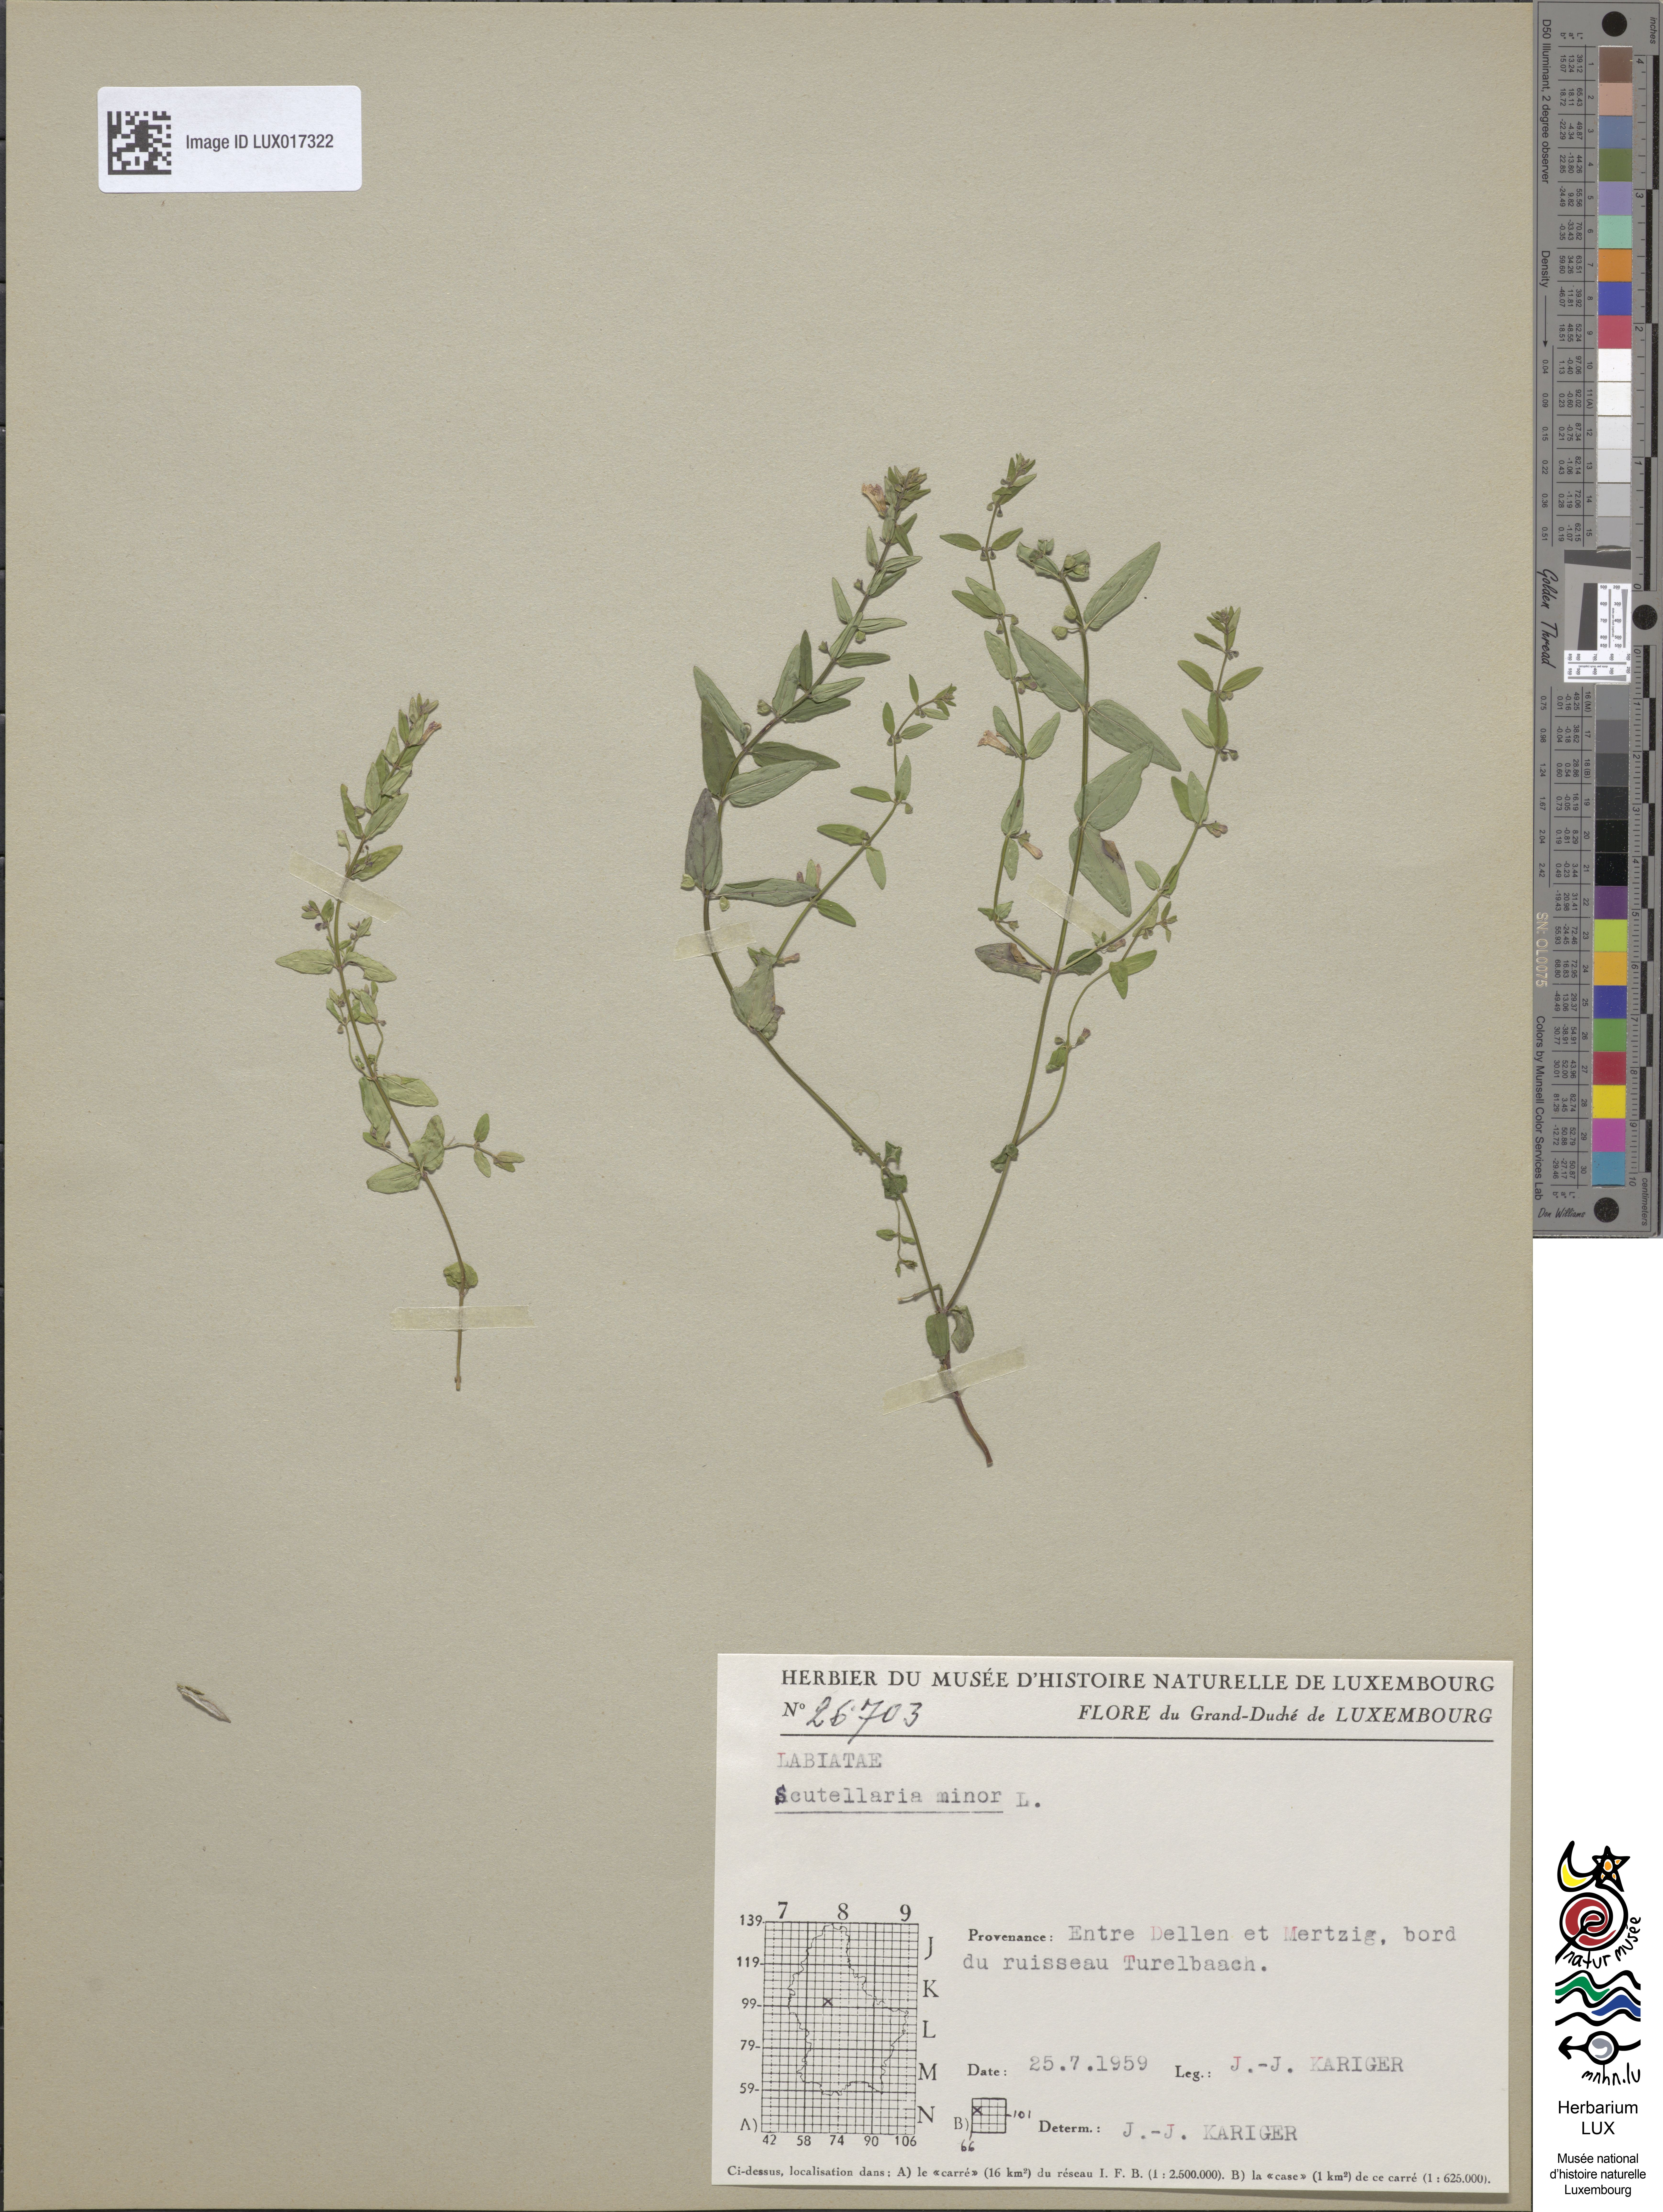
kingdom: Plantae
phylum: Tracheophyta
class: Magnoliopsida
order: Lamiales
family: Lamiaceae
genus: Scutellaria
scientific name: Scutellaria minor
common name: Lesser skullcap
